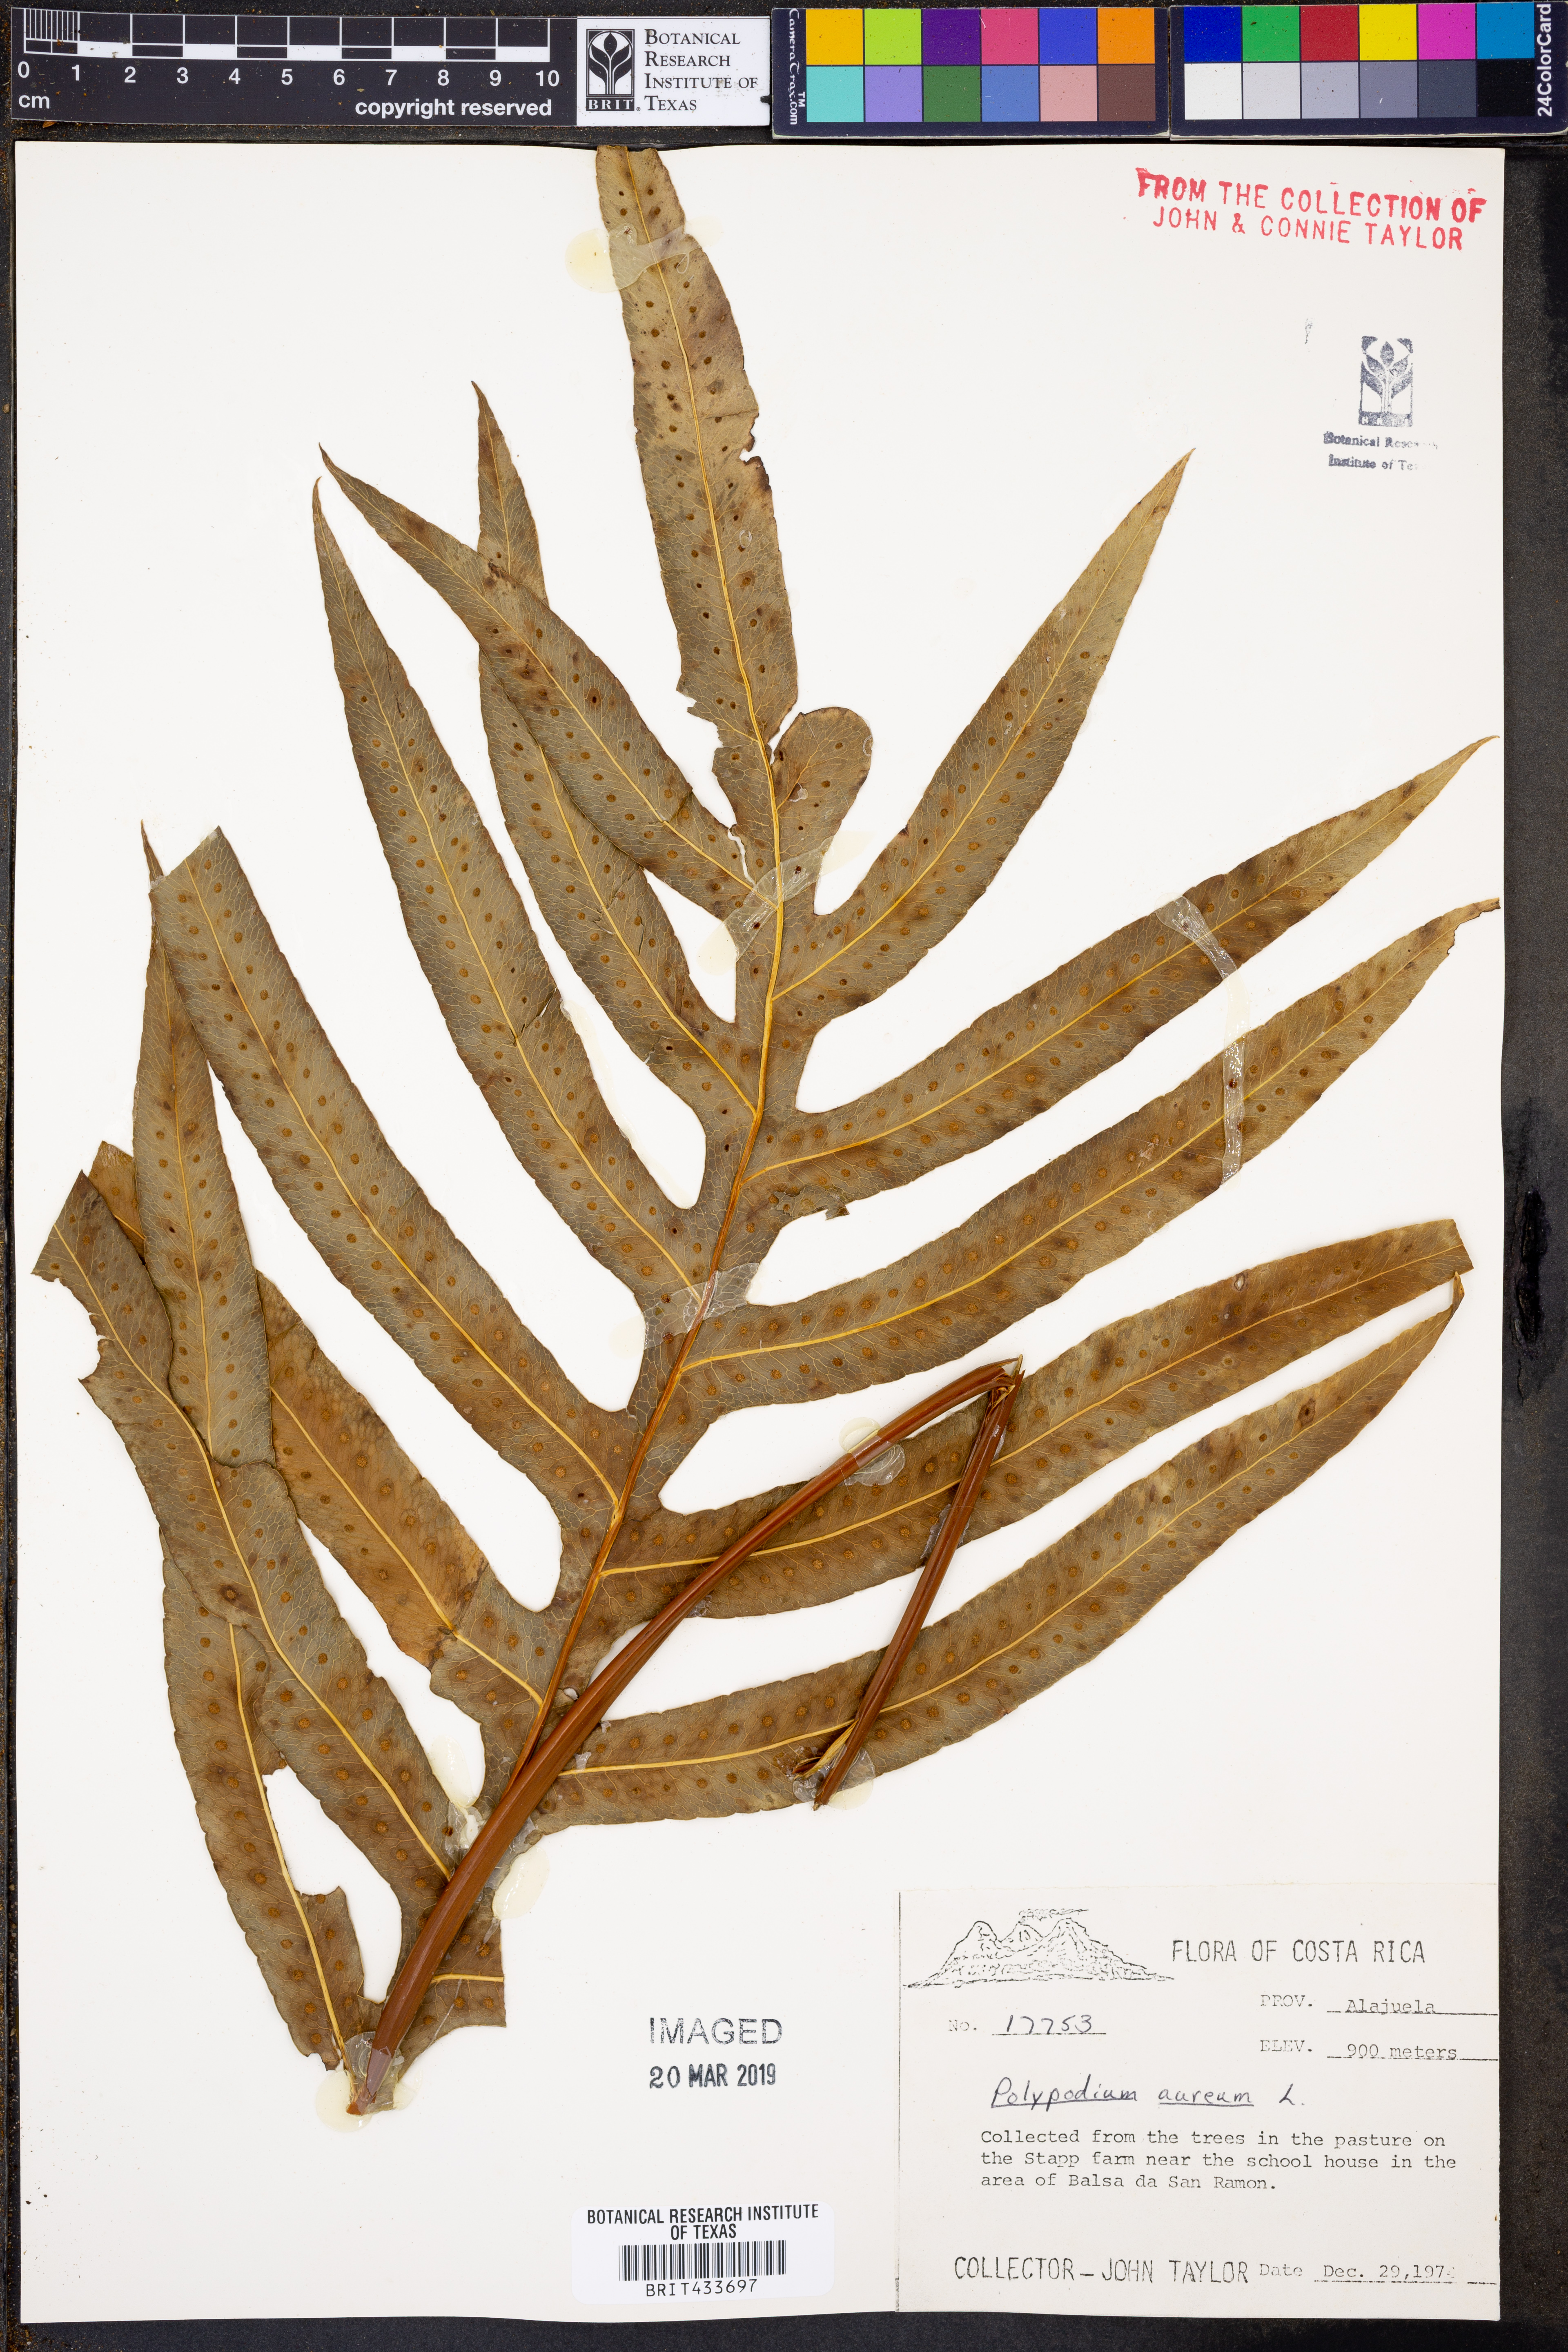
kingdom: Plantae
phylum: Tracheophyta
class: Polypodiopsida
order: Polypodiales
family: Polypodiaceae
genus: Phlebodium
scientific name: Phlebodium aureum
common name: Gold-foot fern
